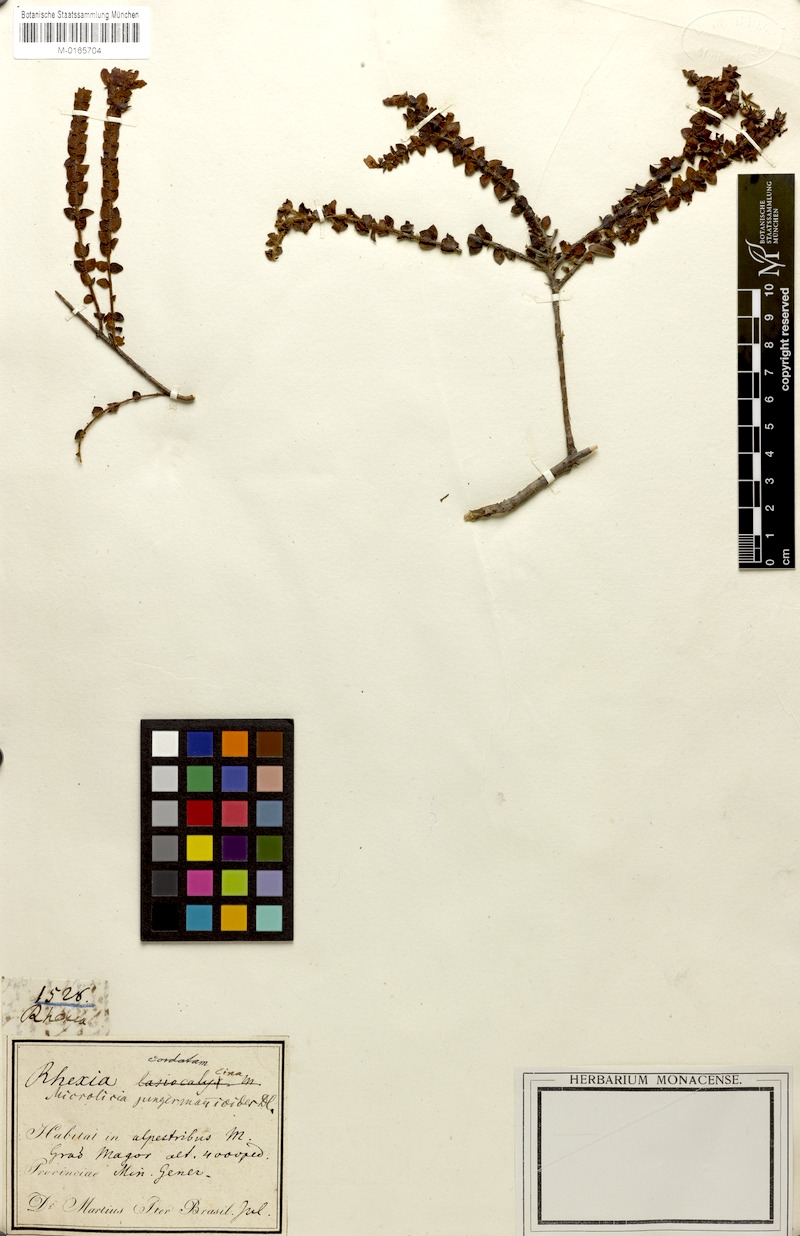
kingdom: Plantae
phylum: Tracheophyta
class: Magnoliopsida
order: Myrtales
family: Melastomataceae
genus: Microlicia
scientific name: Microlicia jungermannioides
